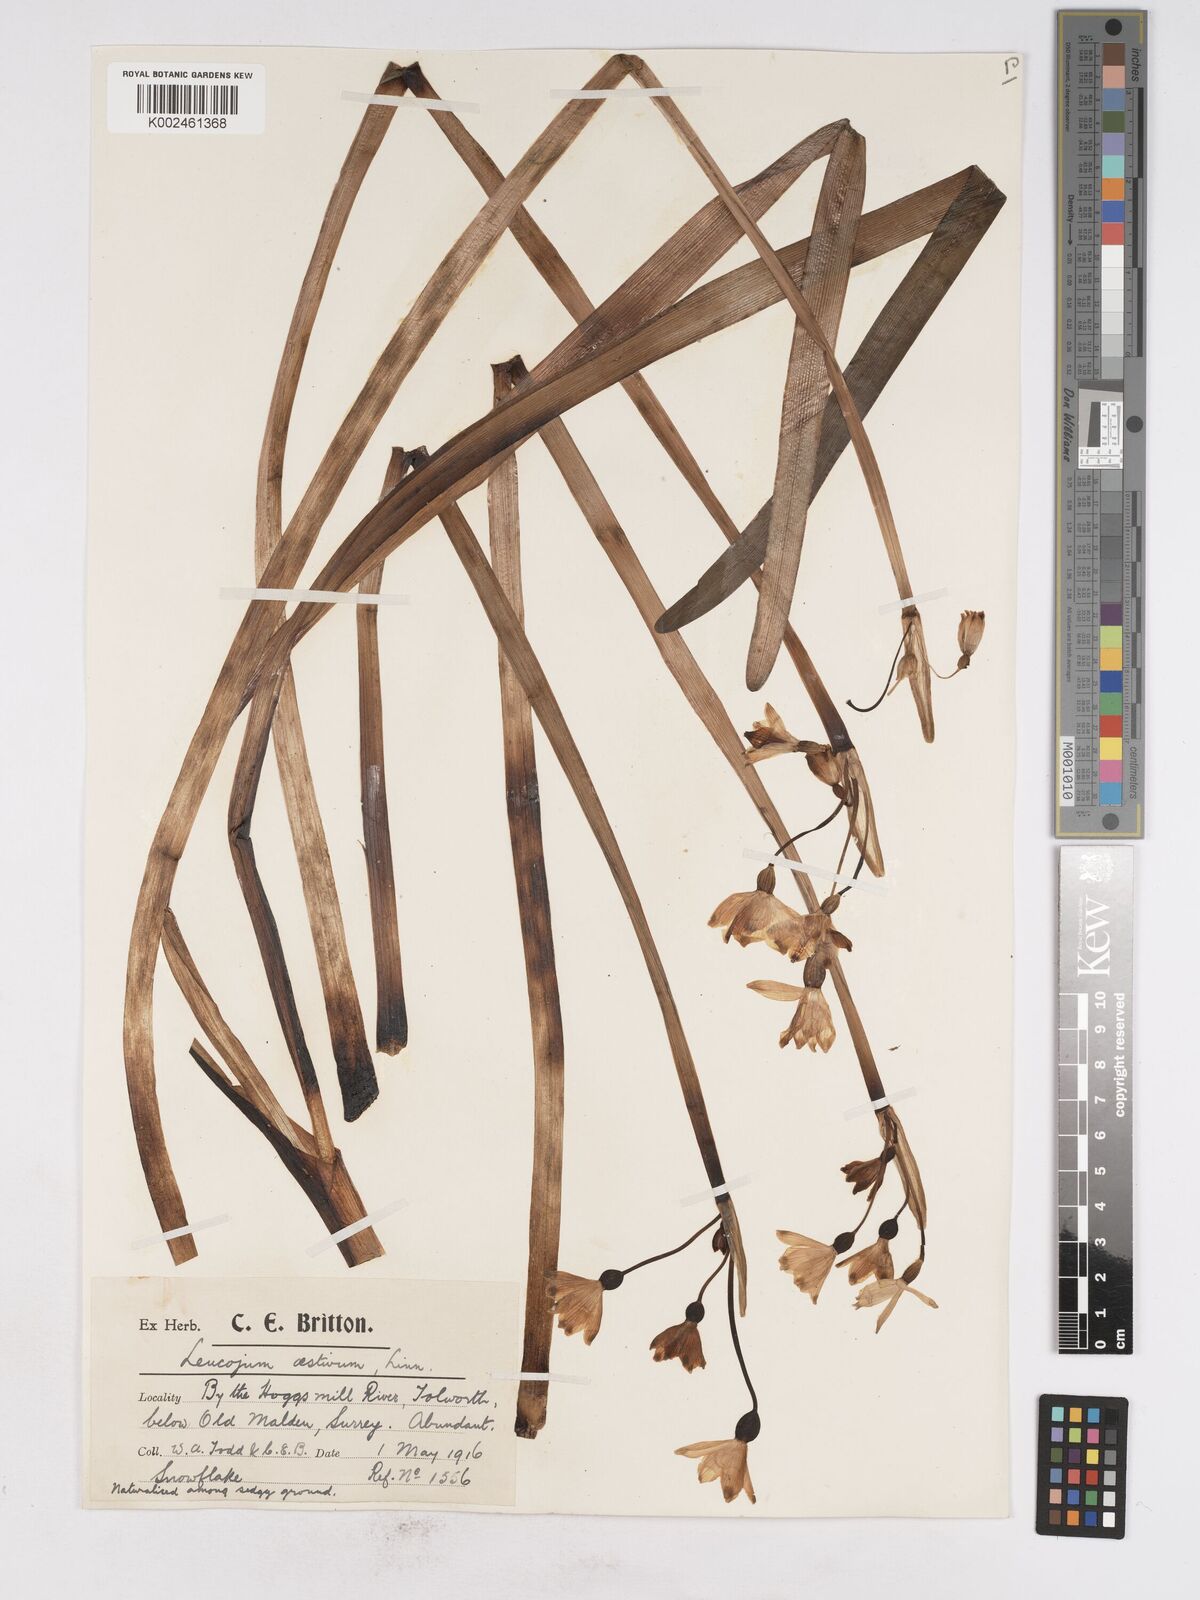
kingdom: Plantae
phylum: Tracheophyta
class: Liliopsida
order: Asparagales
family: Amaryllidaceae
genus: Leucojum
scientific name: Leucojum aestivum
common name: Summer snowflake
